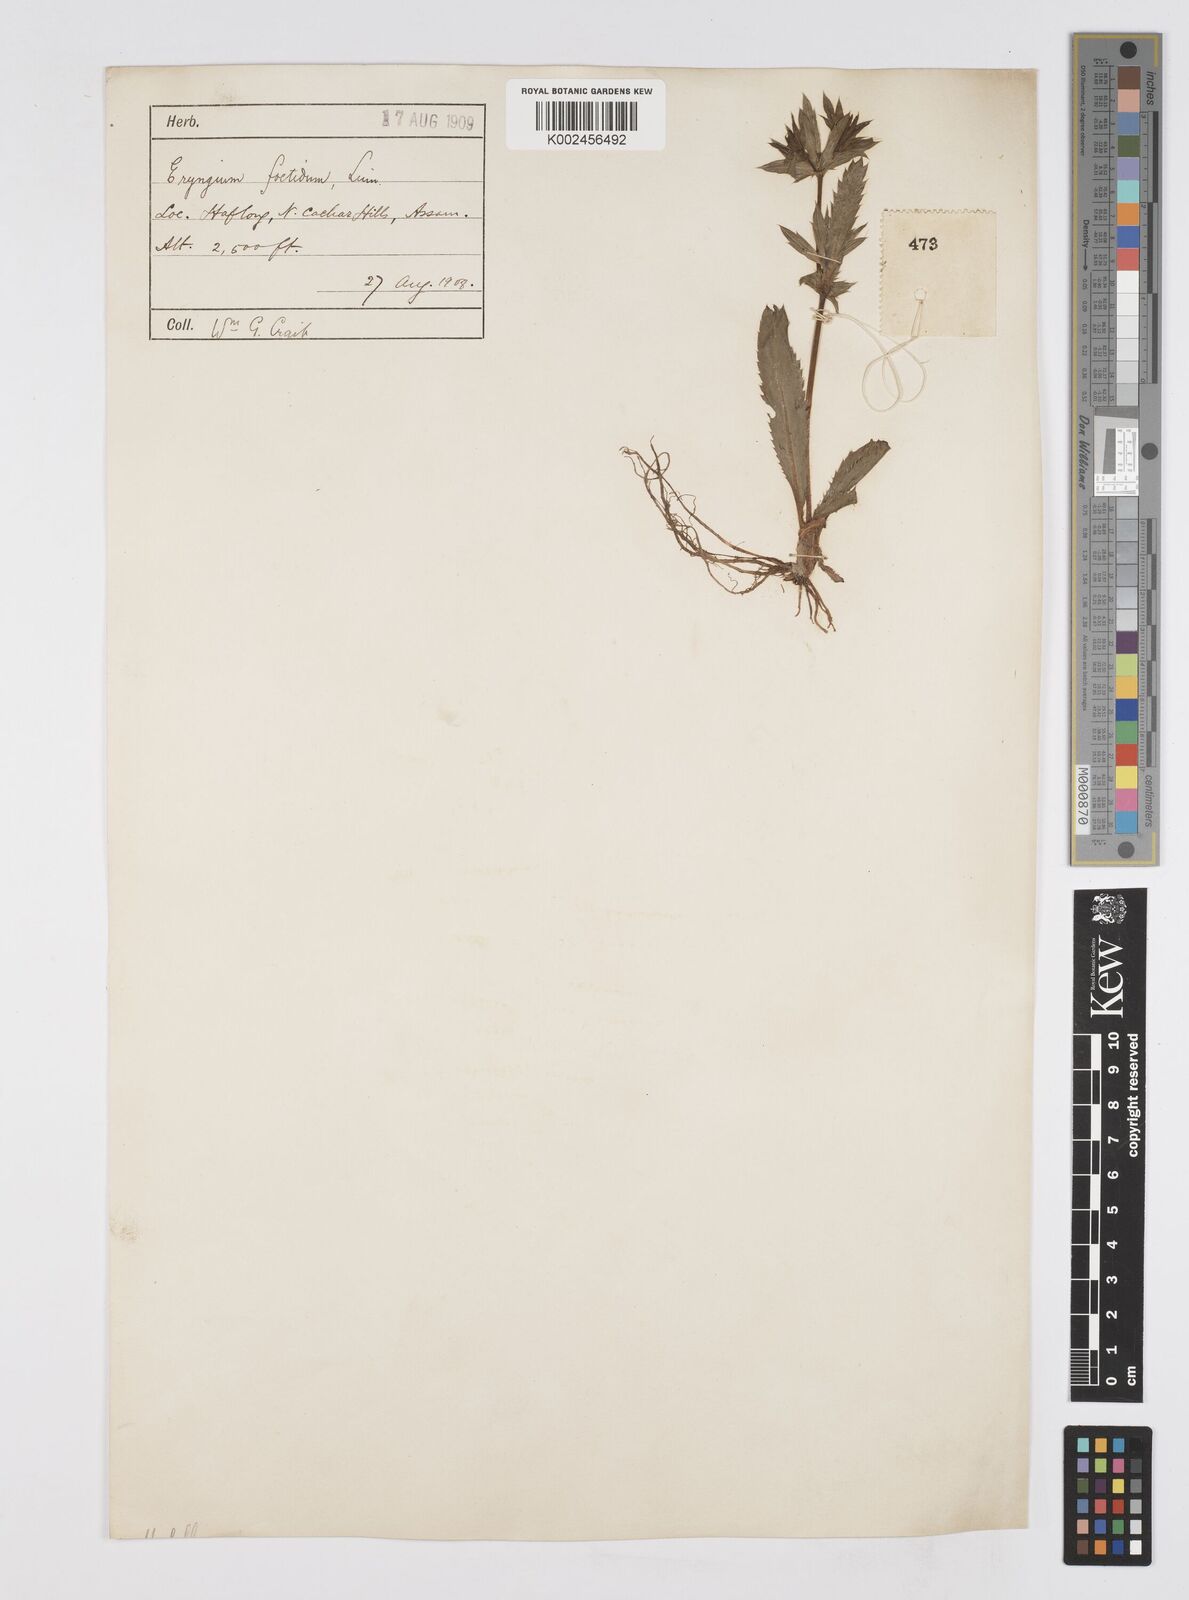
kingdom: Plantae
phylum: Tracheophyta
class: Magnoliopsida
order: Apiales
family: Apiaceae
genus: Eryngium
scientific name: Eryngium foetidum
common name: Fitweed
